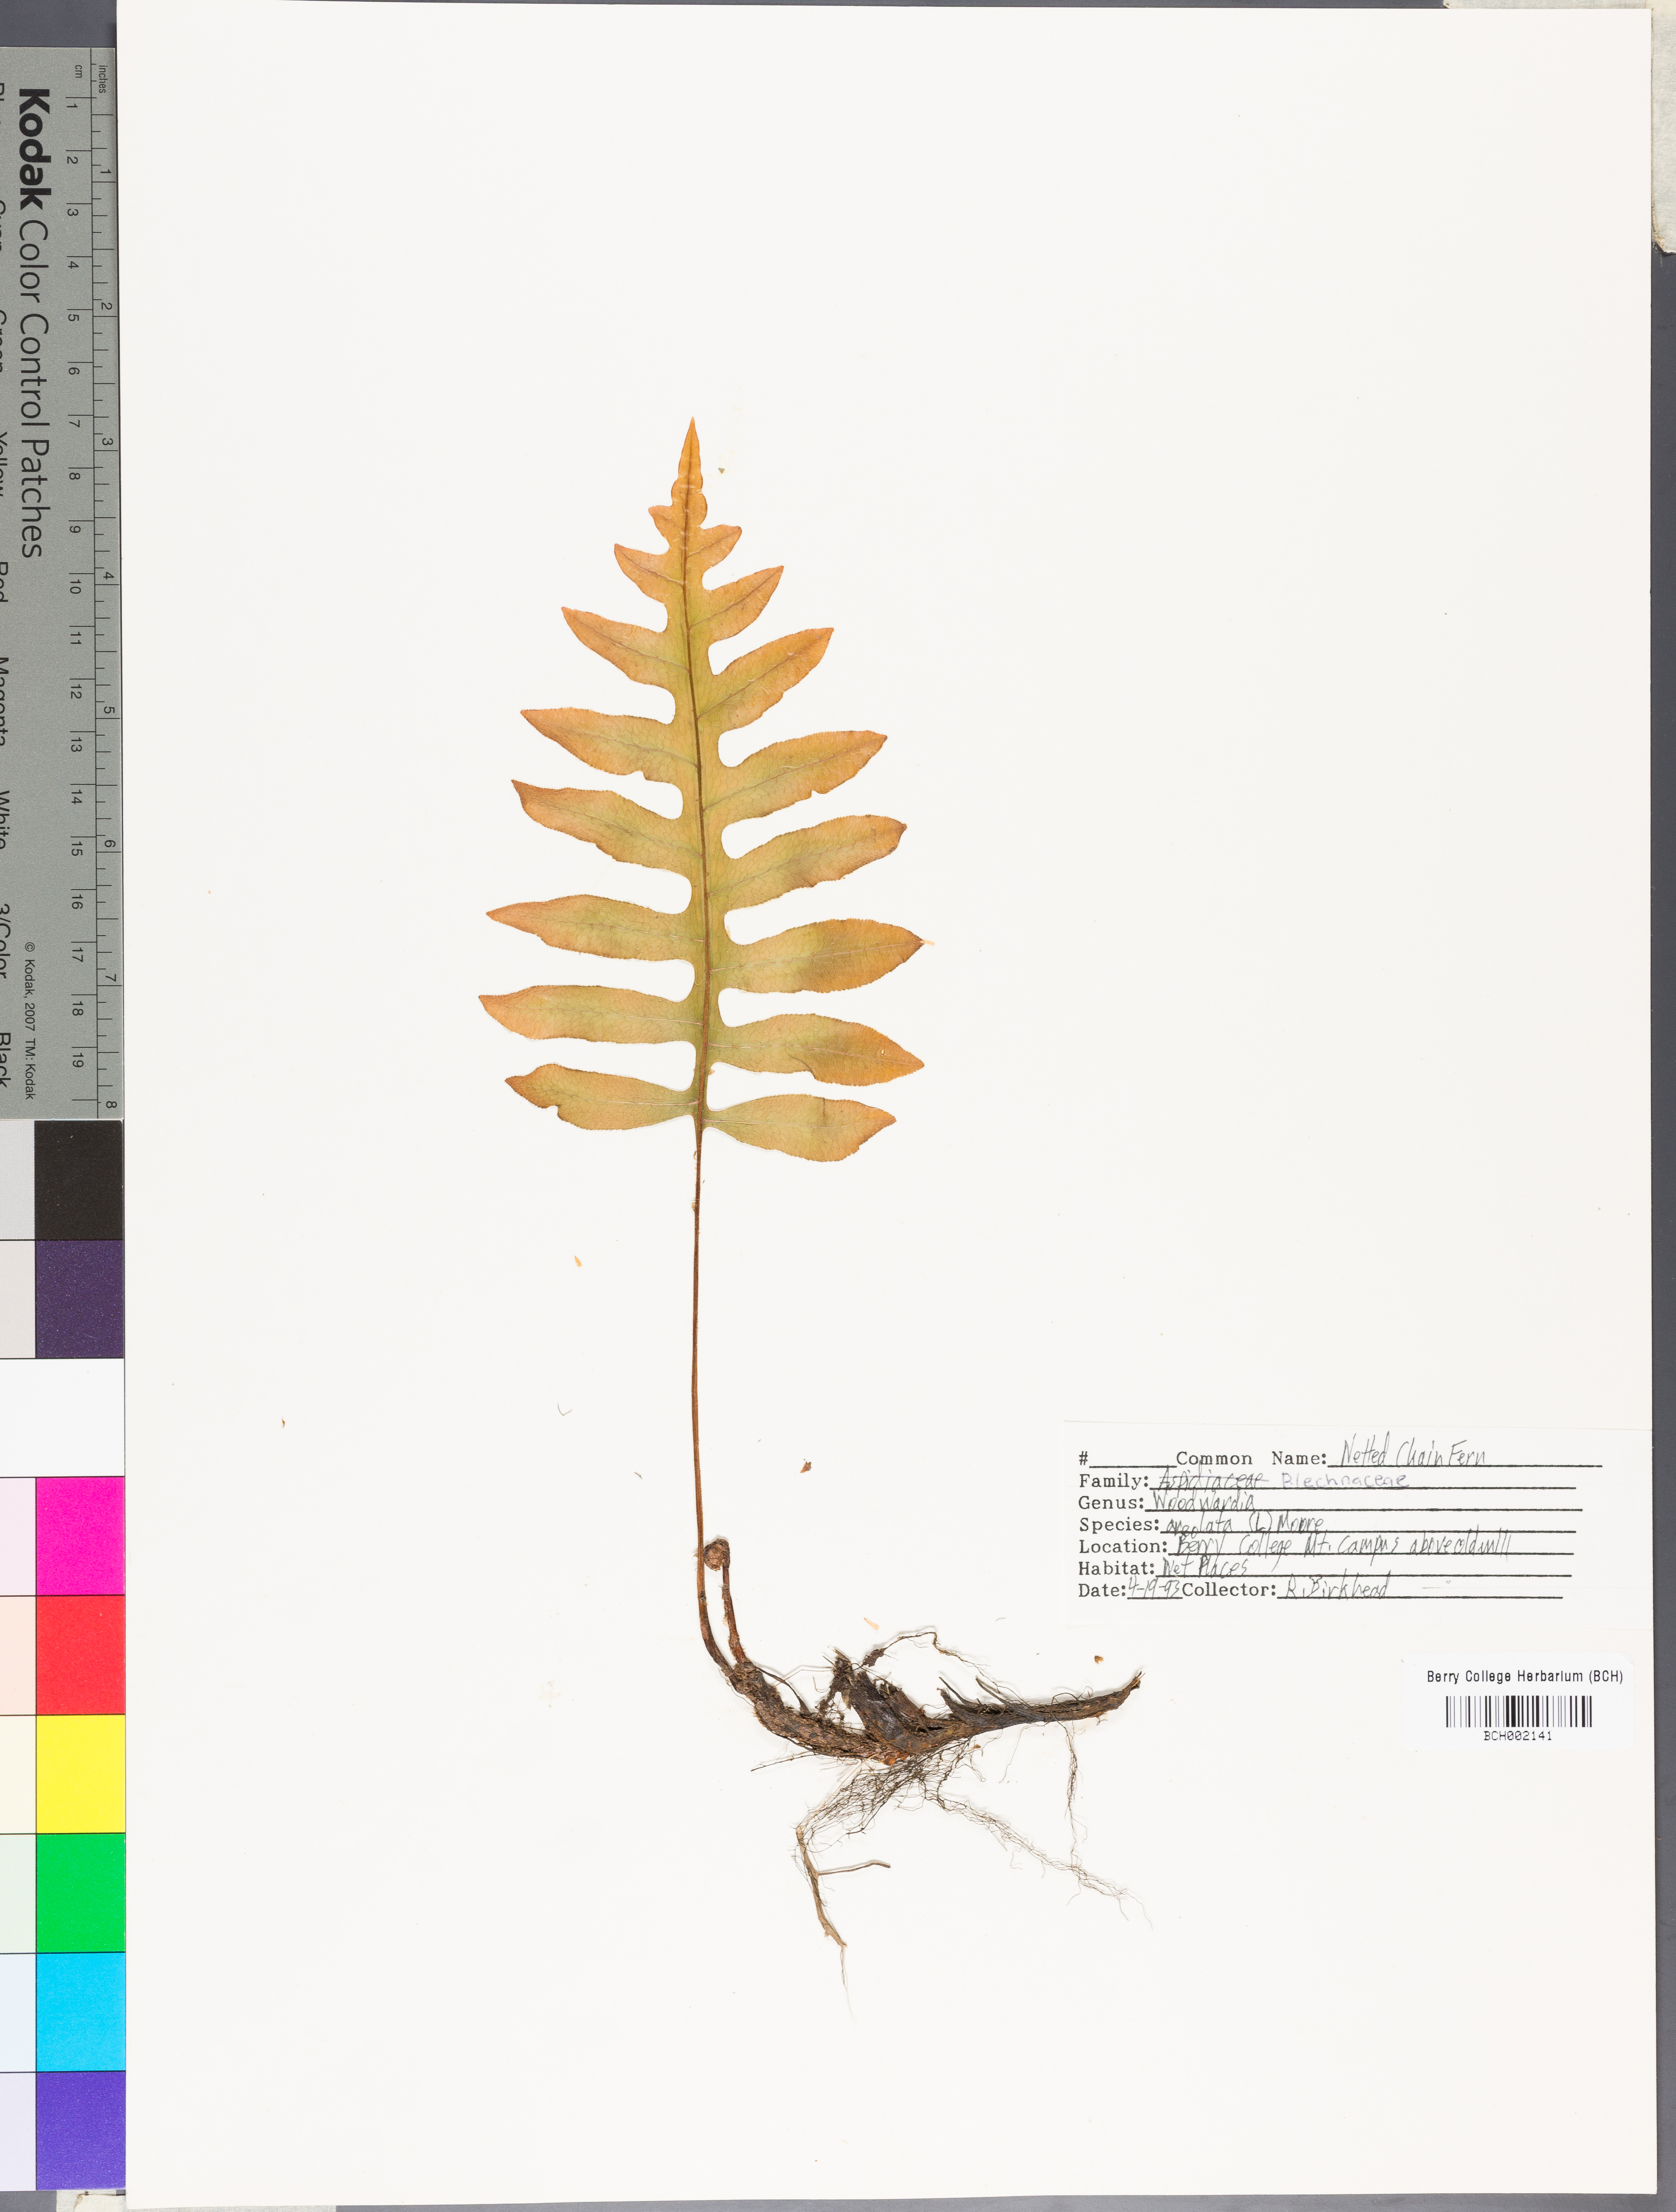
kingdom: Plantae
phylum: Tracheophyta
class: Polypodiopsida
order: Polypodiales
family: Blechnaceae
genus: Lorinseria
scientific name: Lorinseria areolata
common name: Dwarf chain fern
